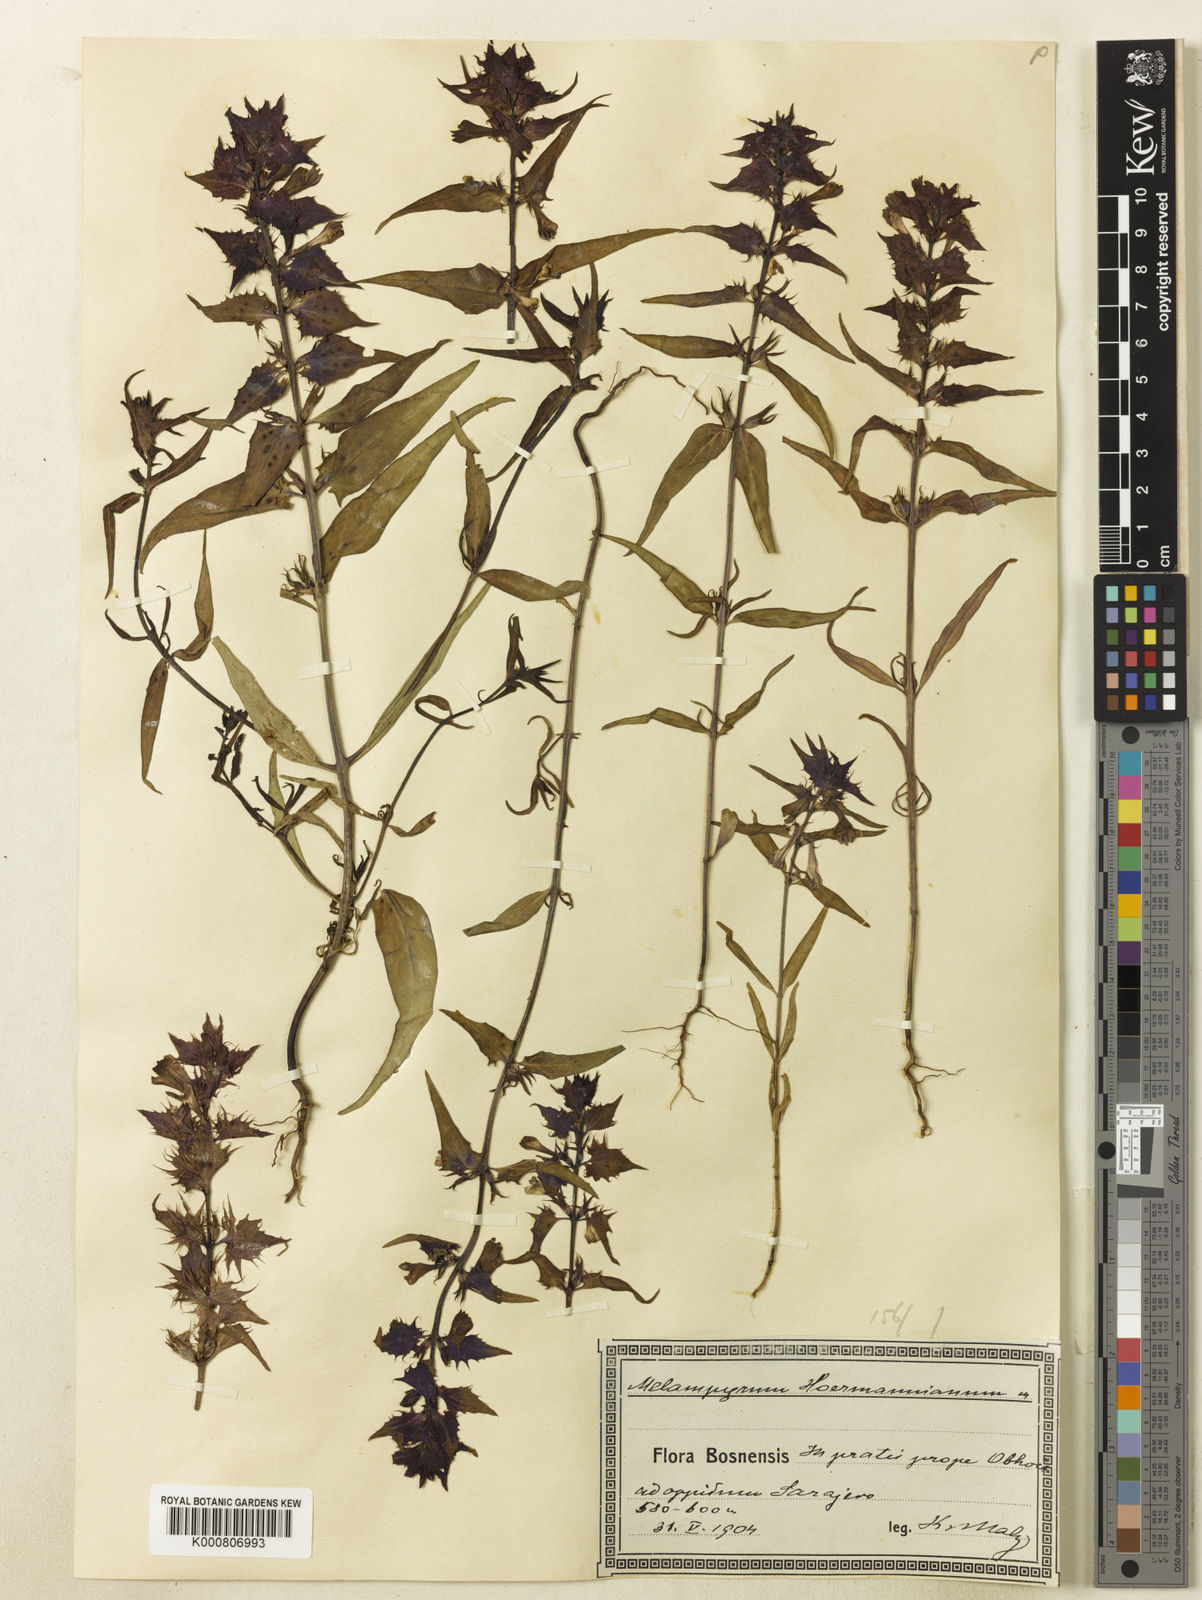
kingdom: Plantae
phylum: Tracheophyta
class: Magnoliopsida
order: Lamiales
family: Orobanchaceae
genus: Melampyrum
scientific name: Melampyrum hoermannianum
